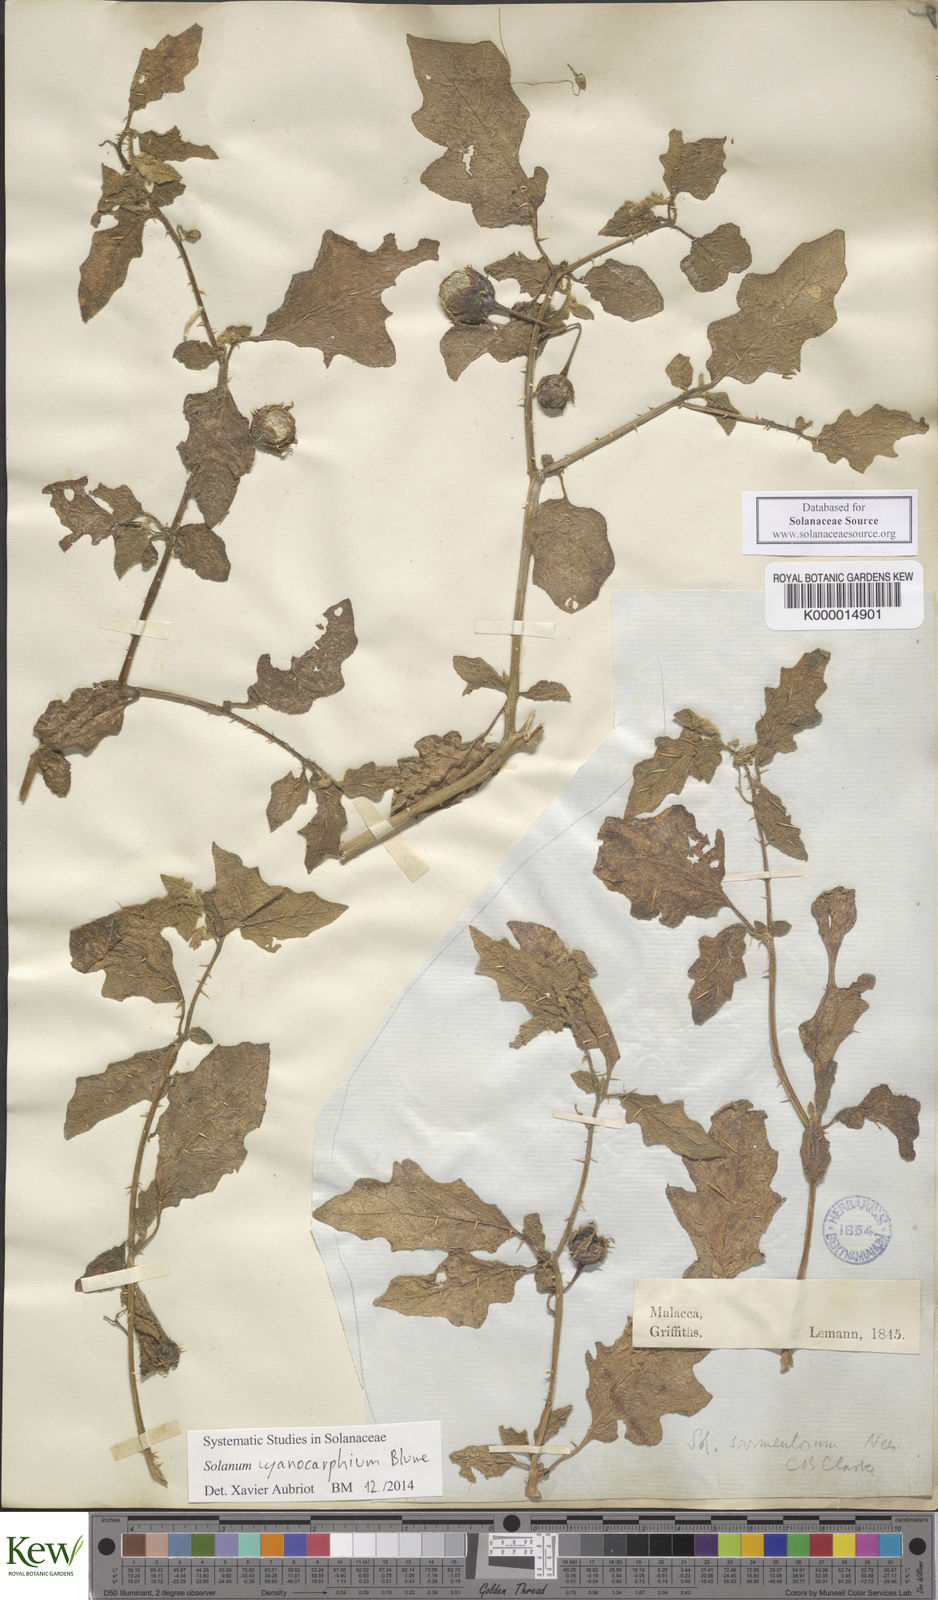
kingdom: Plantae
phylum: Tracheophyta
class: Magnoliopsida
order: Solanales
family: Solanaceae
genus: Solanum
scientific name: Solanum cyanocarphium
